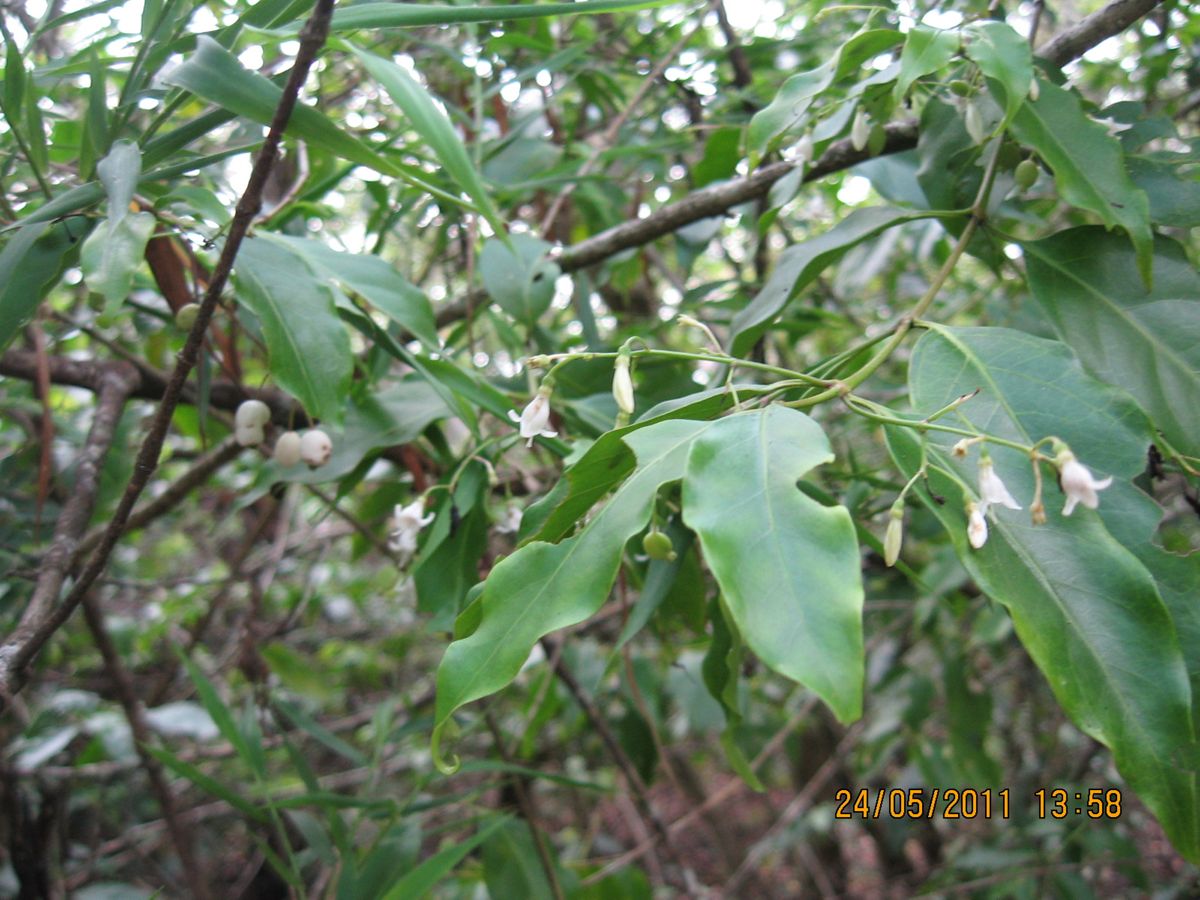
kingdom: Plantae
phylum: Tracheophyta
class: Magnoliopsida
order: Gentianales
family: Rubiaceae
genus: Chiococca
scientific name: Chiococca alba
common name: Snowberry
